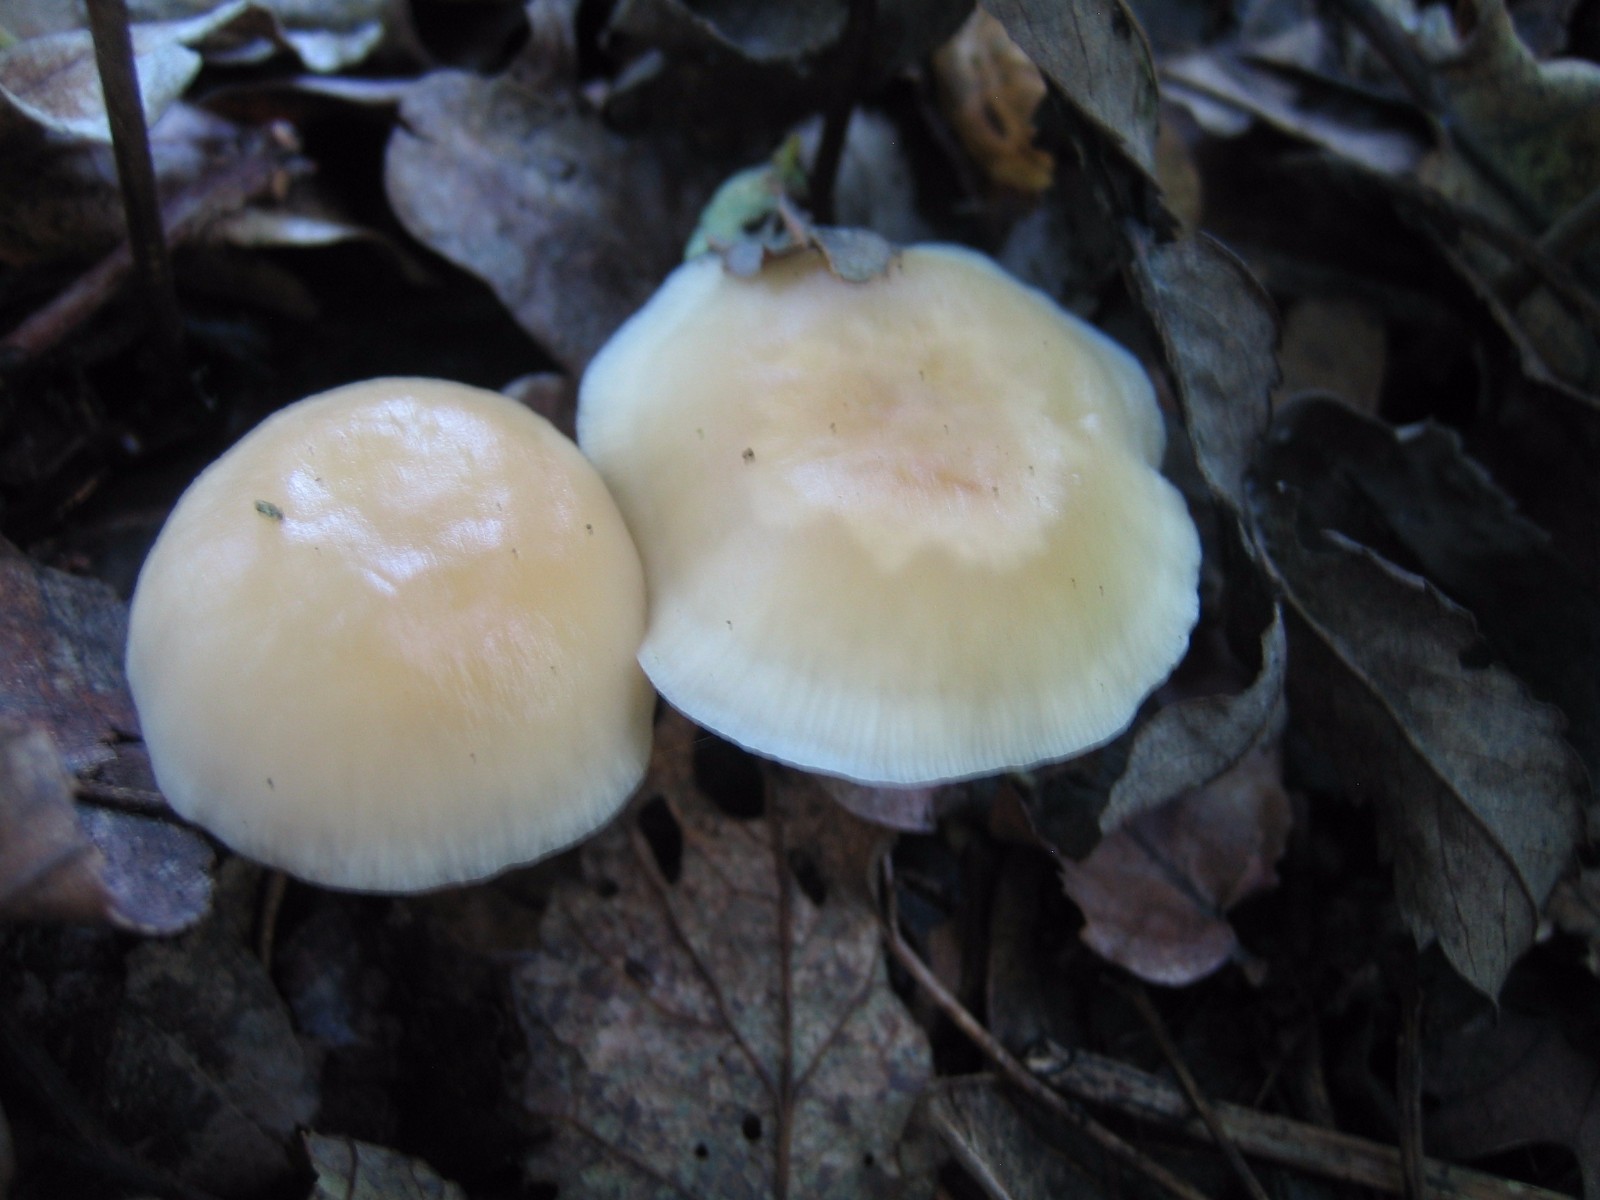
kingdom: Fungi
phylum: Basidiomycota
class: Agaricomycetes
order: Agaricales
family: Omphalotaceae
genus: Gymnopus
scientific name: Gymnopus dryophilus
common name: løv-fladhat
